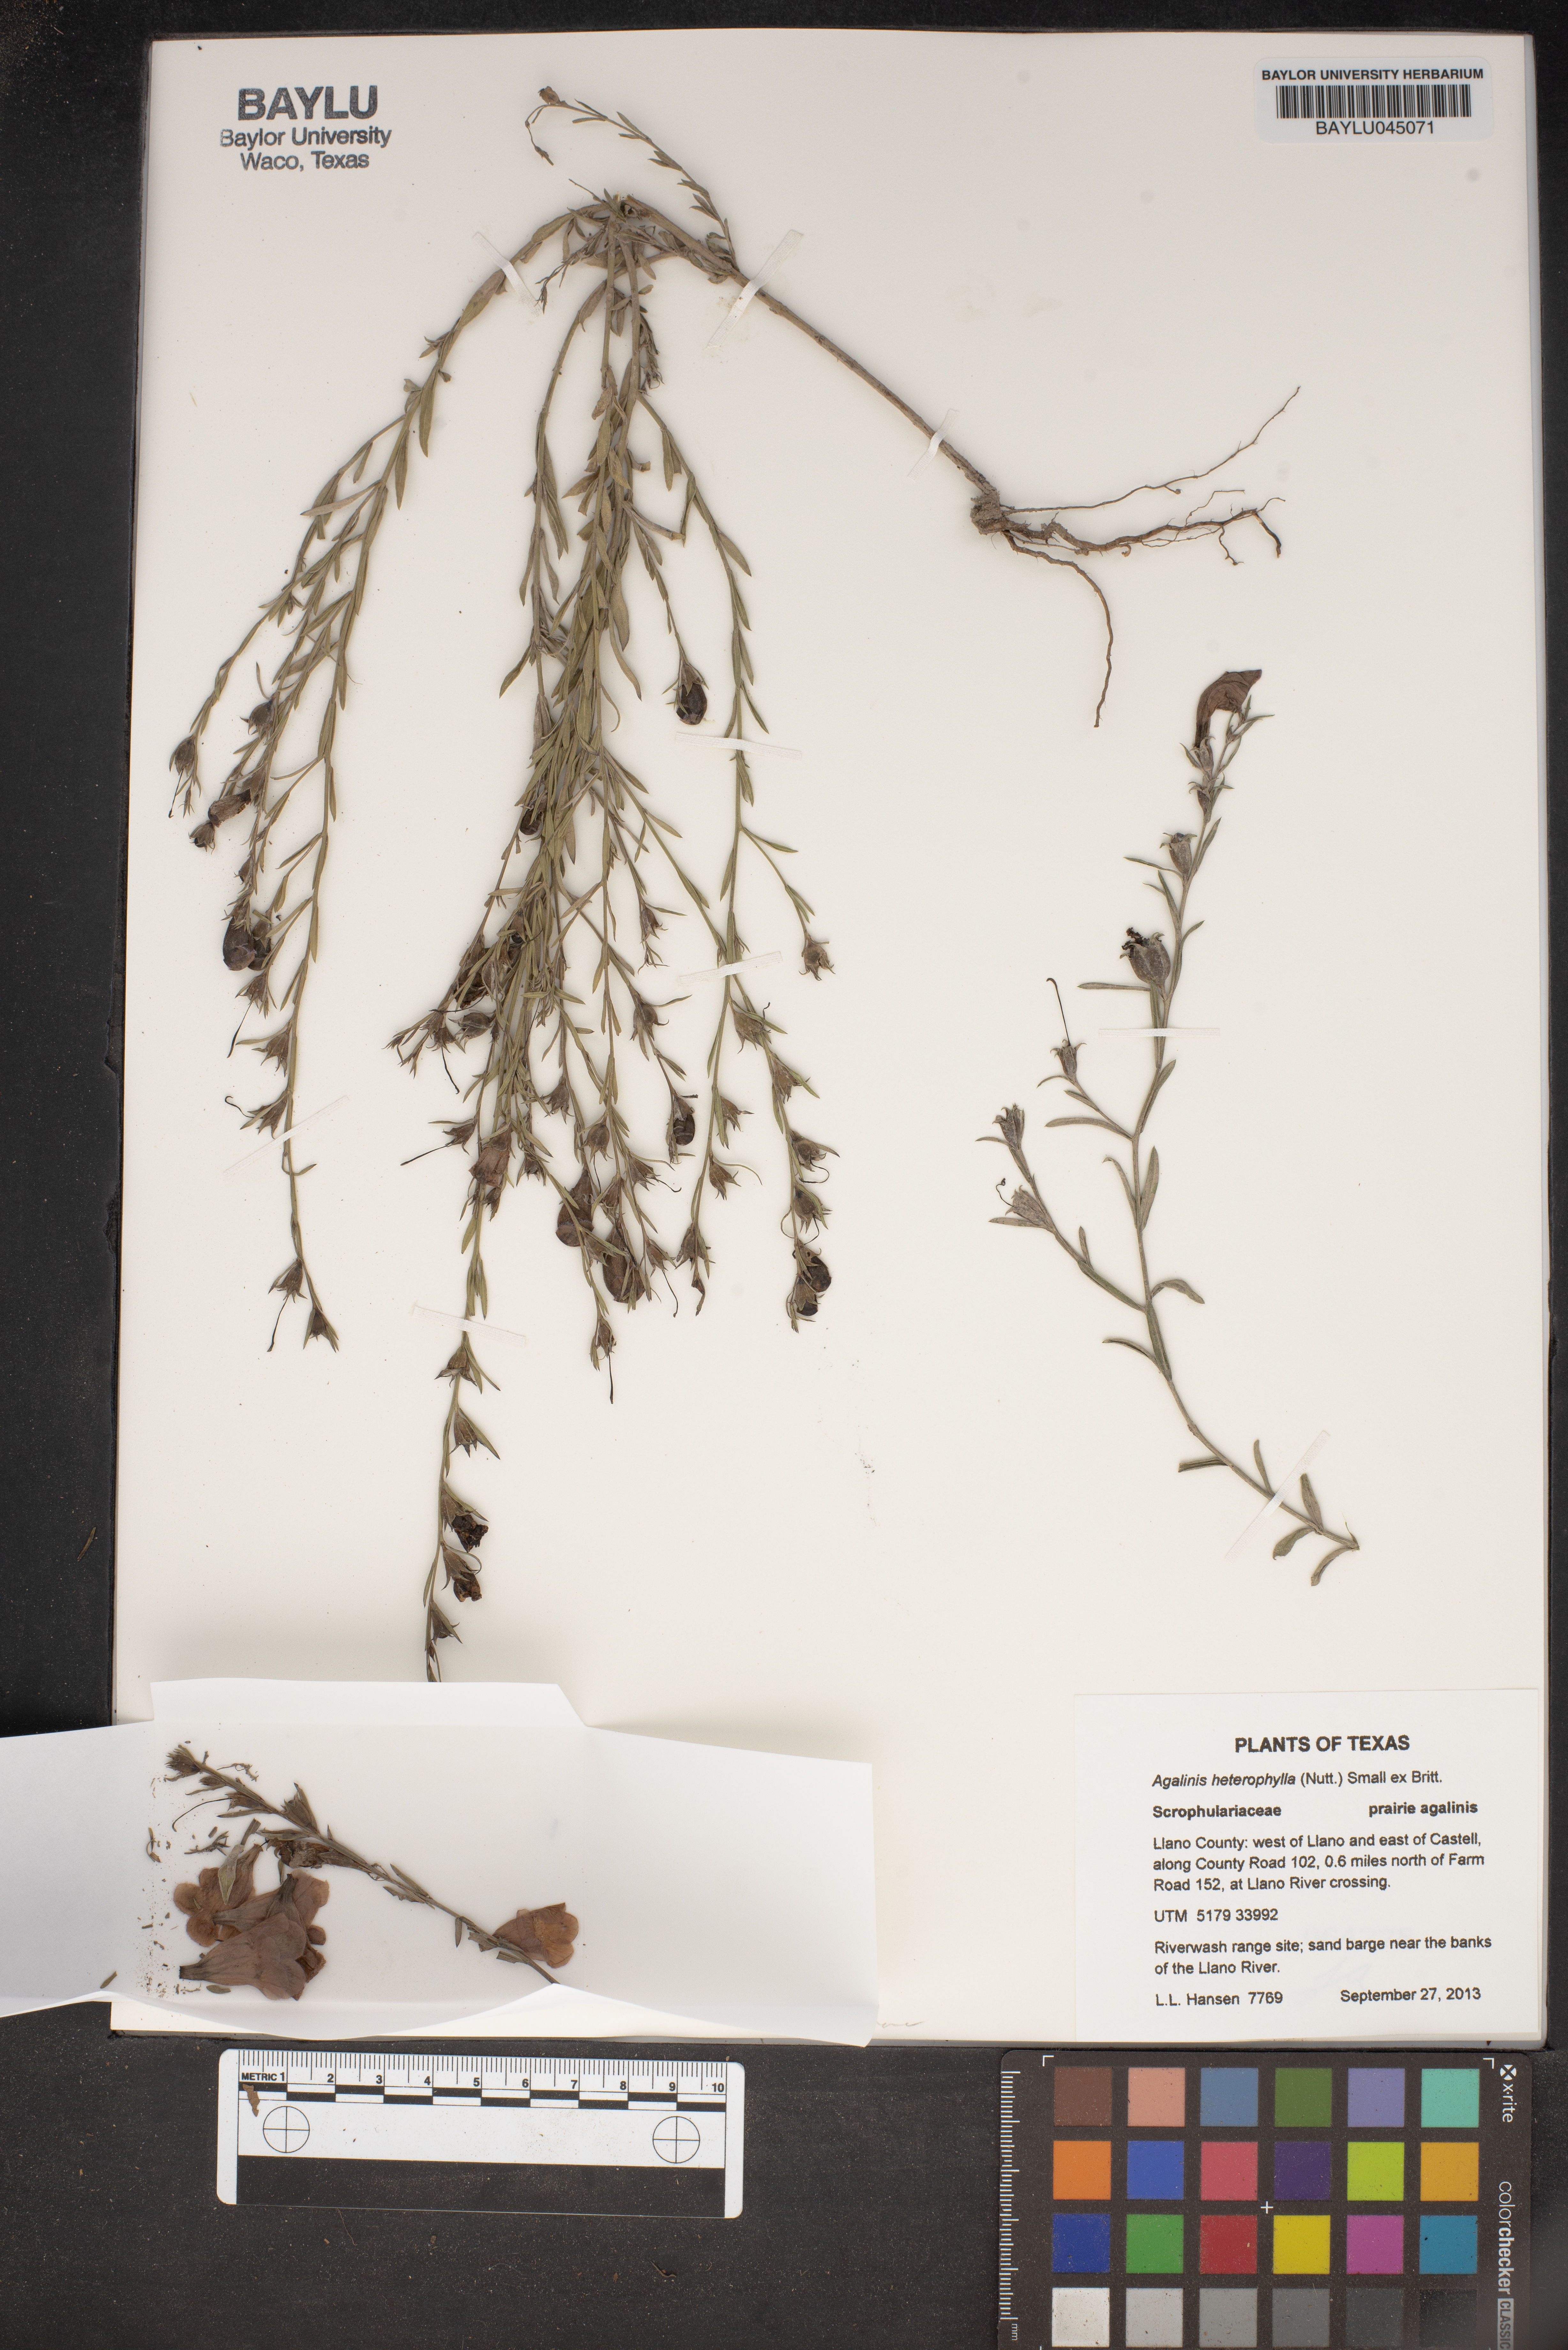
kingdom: Plantae
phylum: Tracheophyta
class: Magnoliopsida
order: Lamiales
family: Orobanchaceae
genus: Agalinis
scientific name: Agalinis heterophylla
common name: Prairie agalinis
